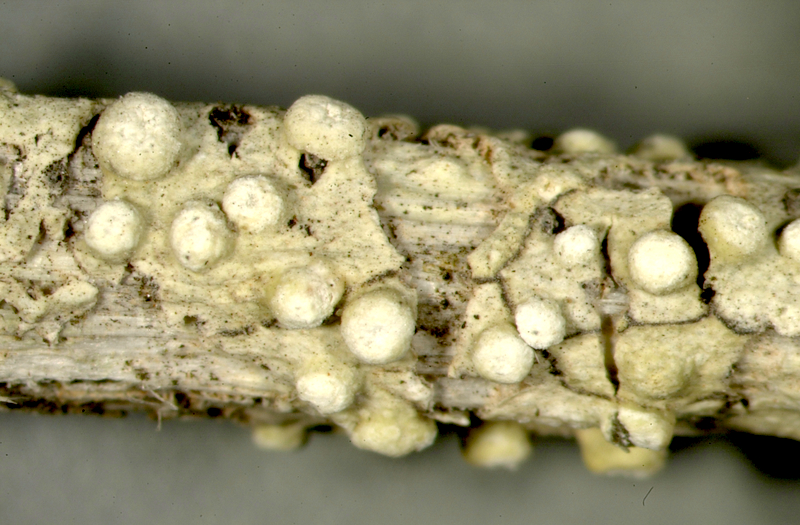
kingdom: Fungi
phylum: Ascomycota
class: Lecanoromycetes
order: Pertusariales
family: Ochrolechiaceae
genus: Ochrolechia
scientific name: Ochrolechia
